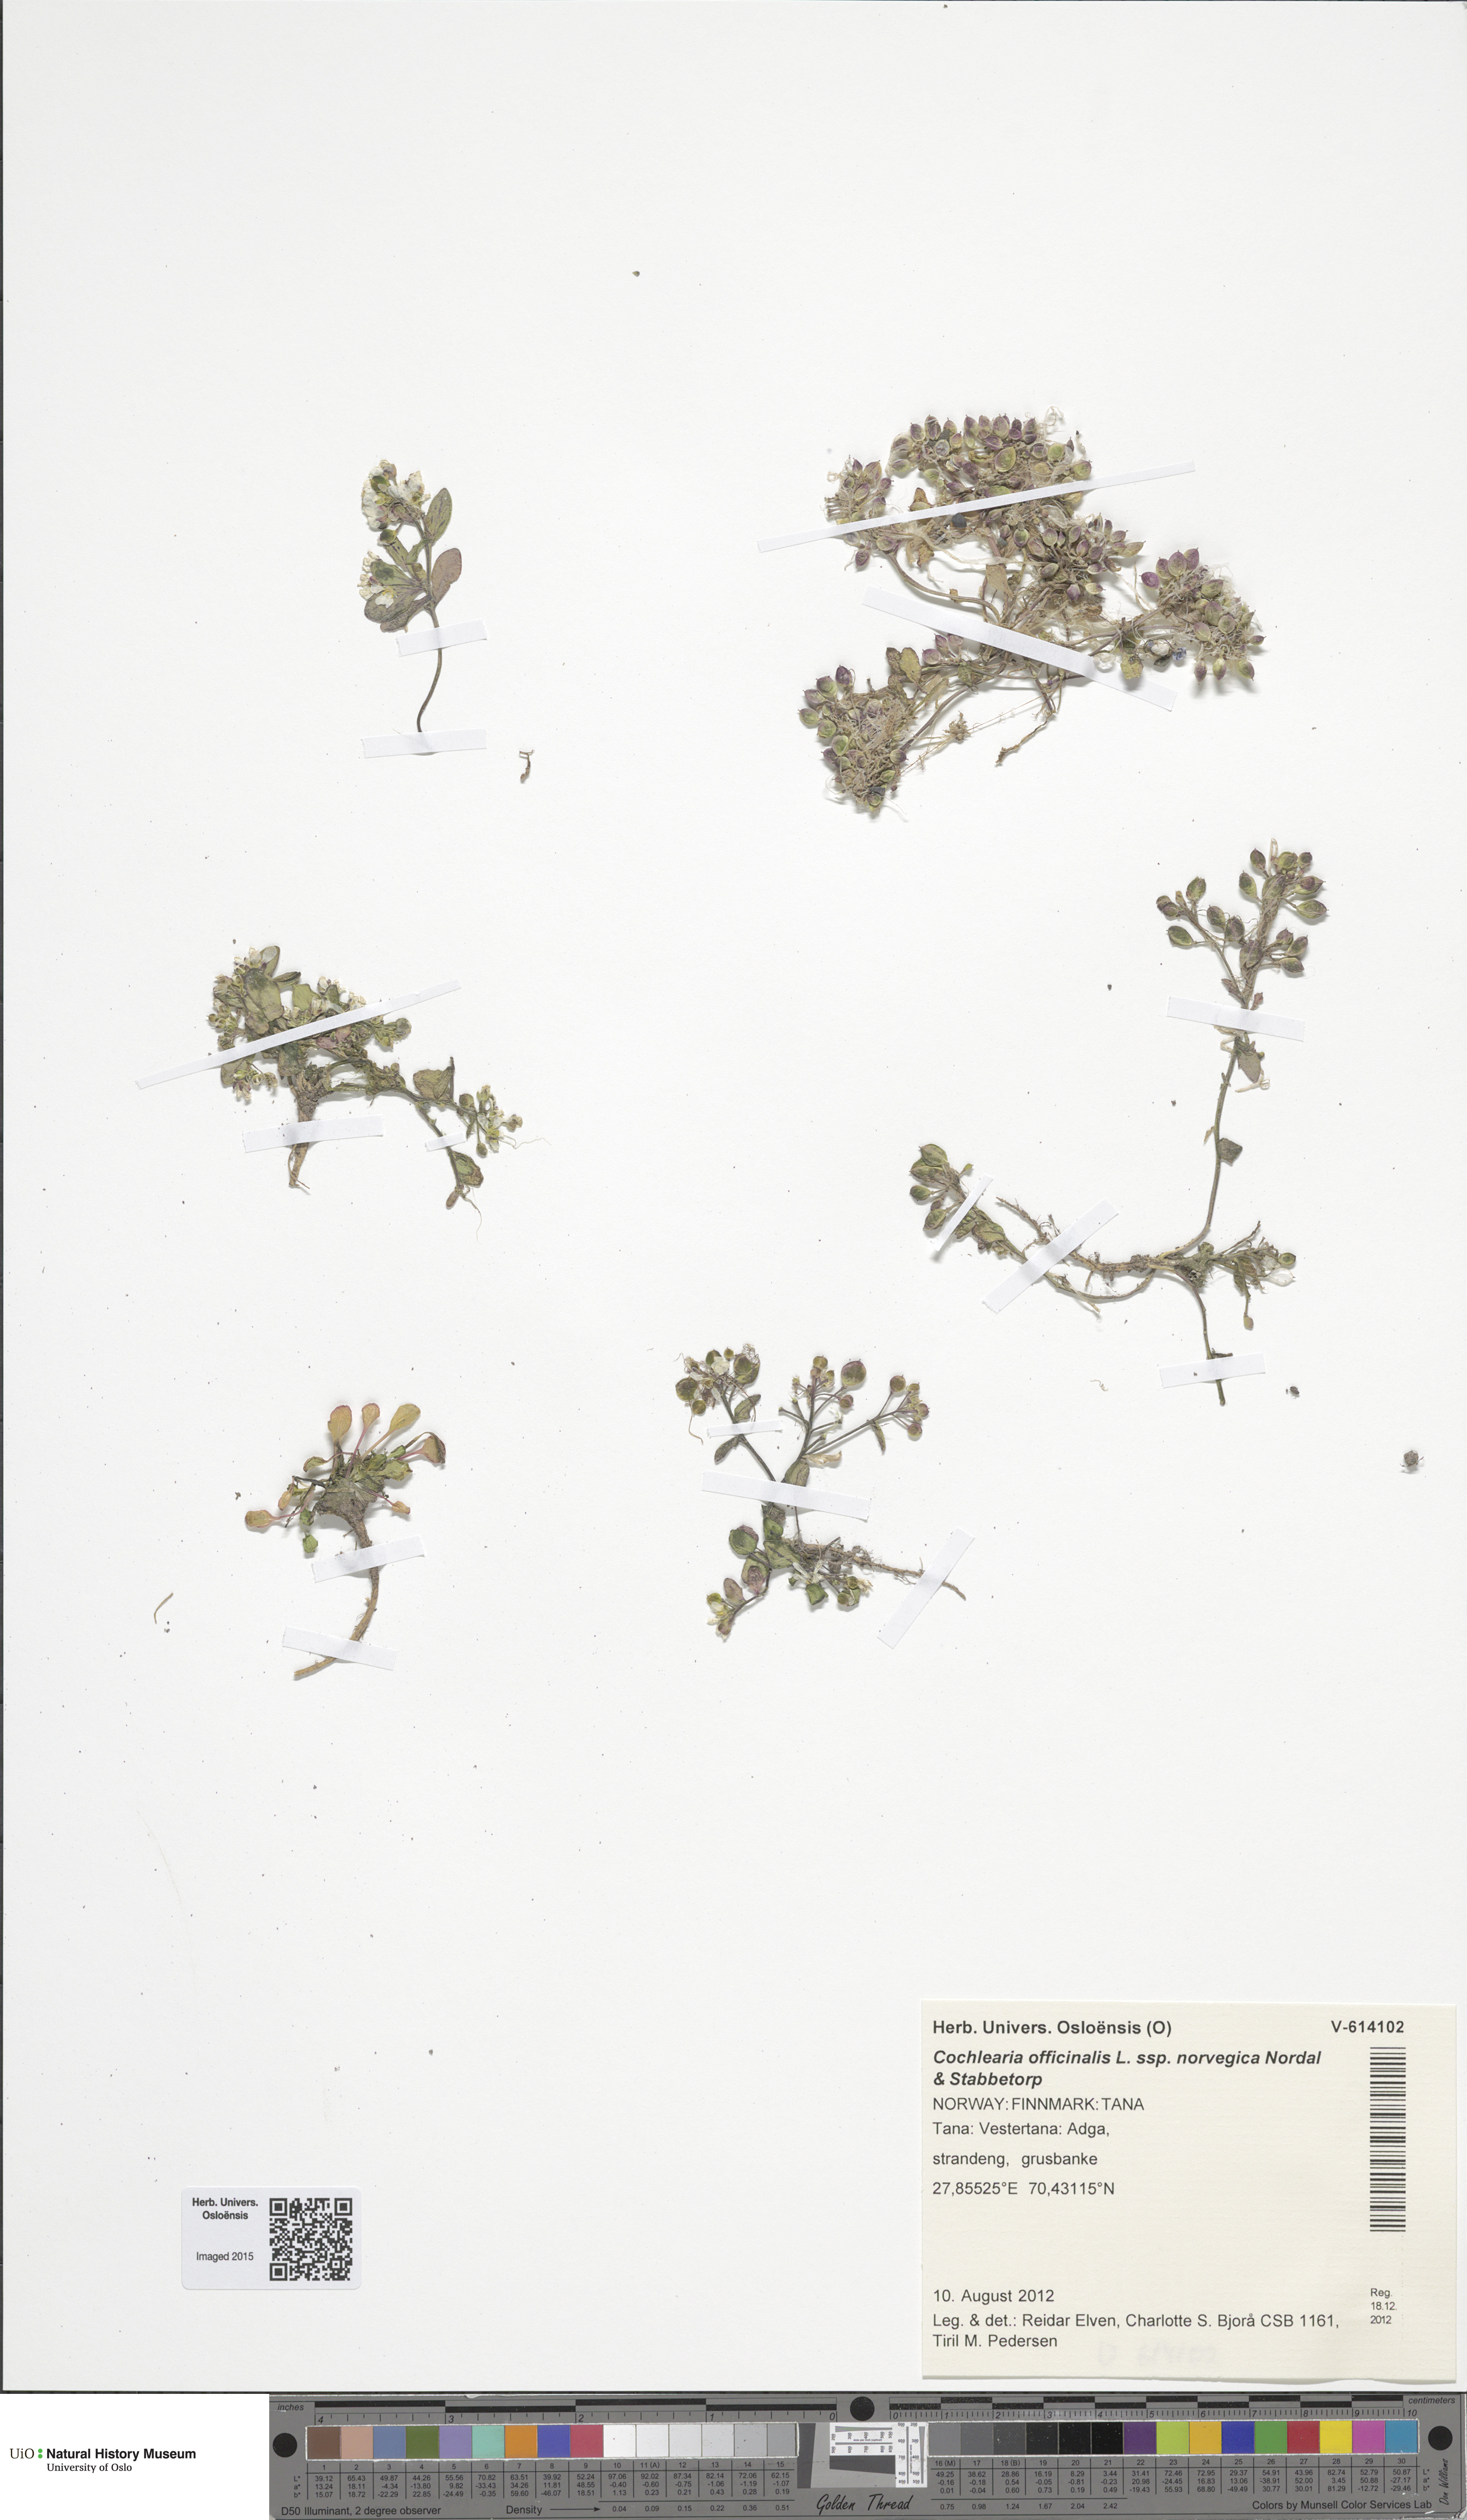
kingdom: Plantae
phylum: Tracheophyta
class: Magnoliopsida
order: Brassicales
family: Brassicaceae
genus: Cochlearia
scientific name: Cochlearia officinalis
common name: Scurvy-grass
